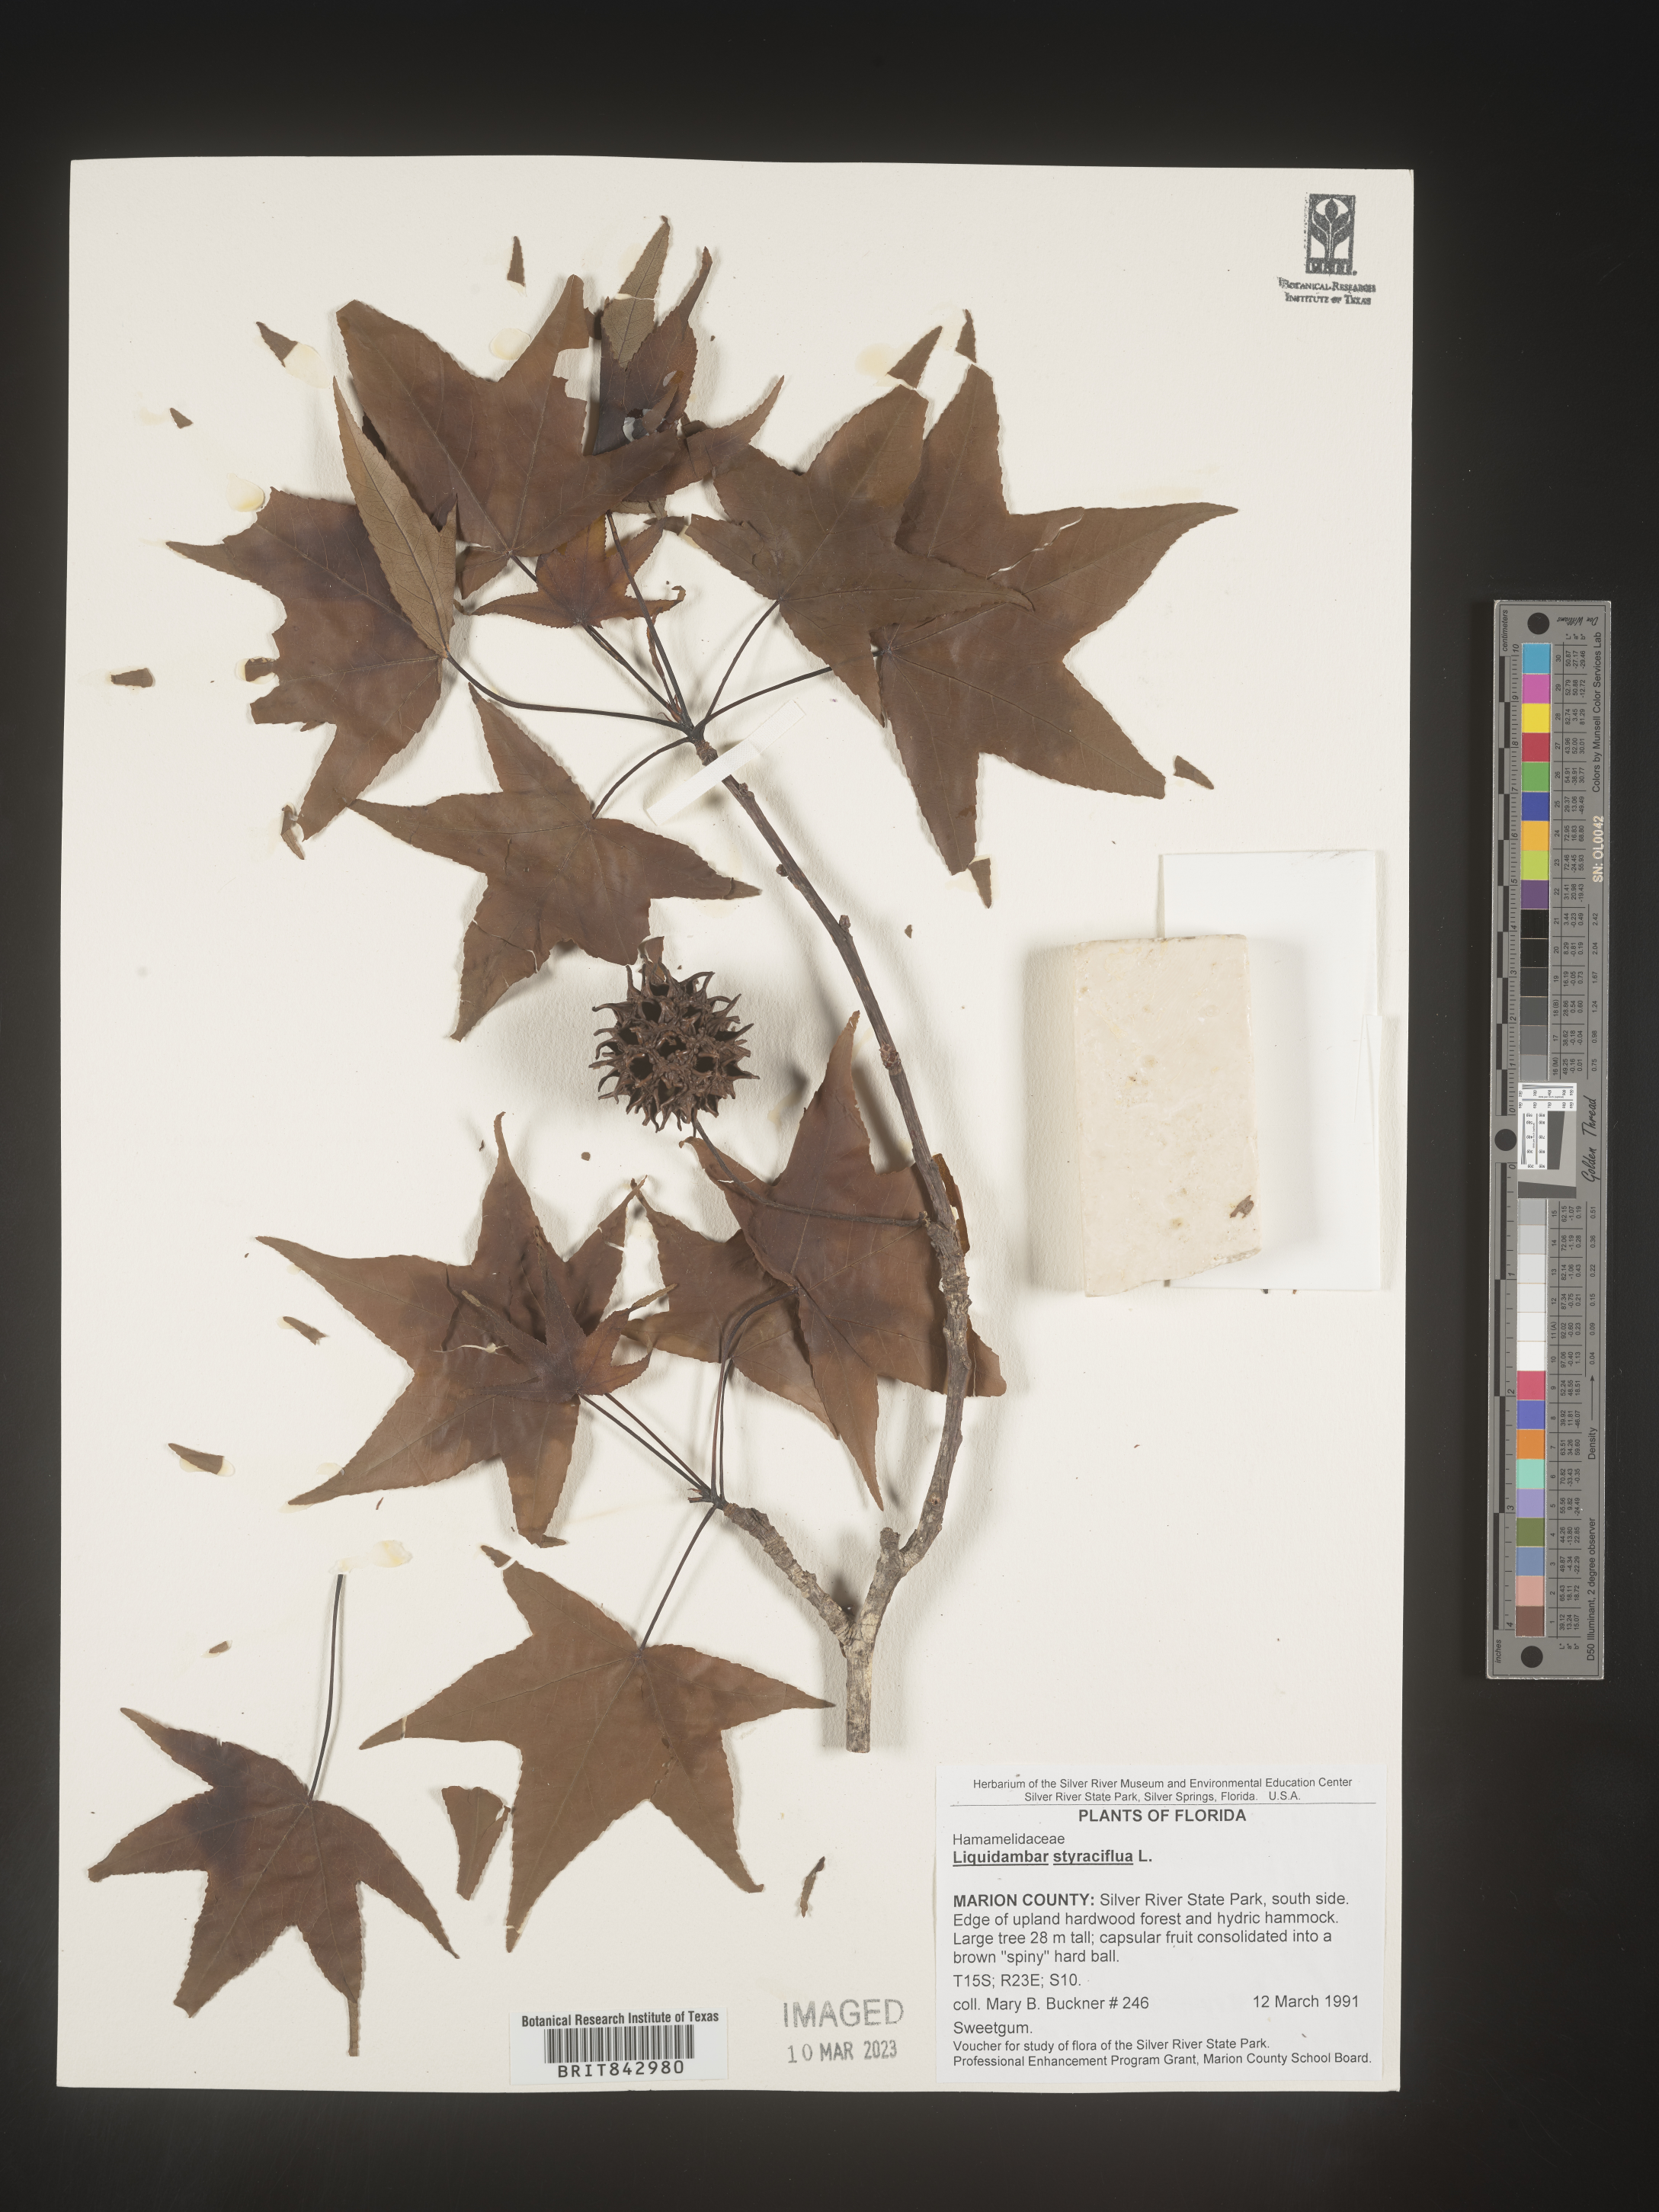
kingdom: Plantae
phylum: Tracheophyta
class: Magnoliopsida
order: Saxifragales
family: Altingiaceae
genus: Liquidambar
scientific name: Liquidambar
